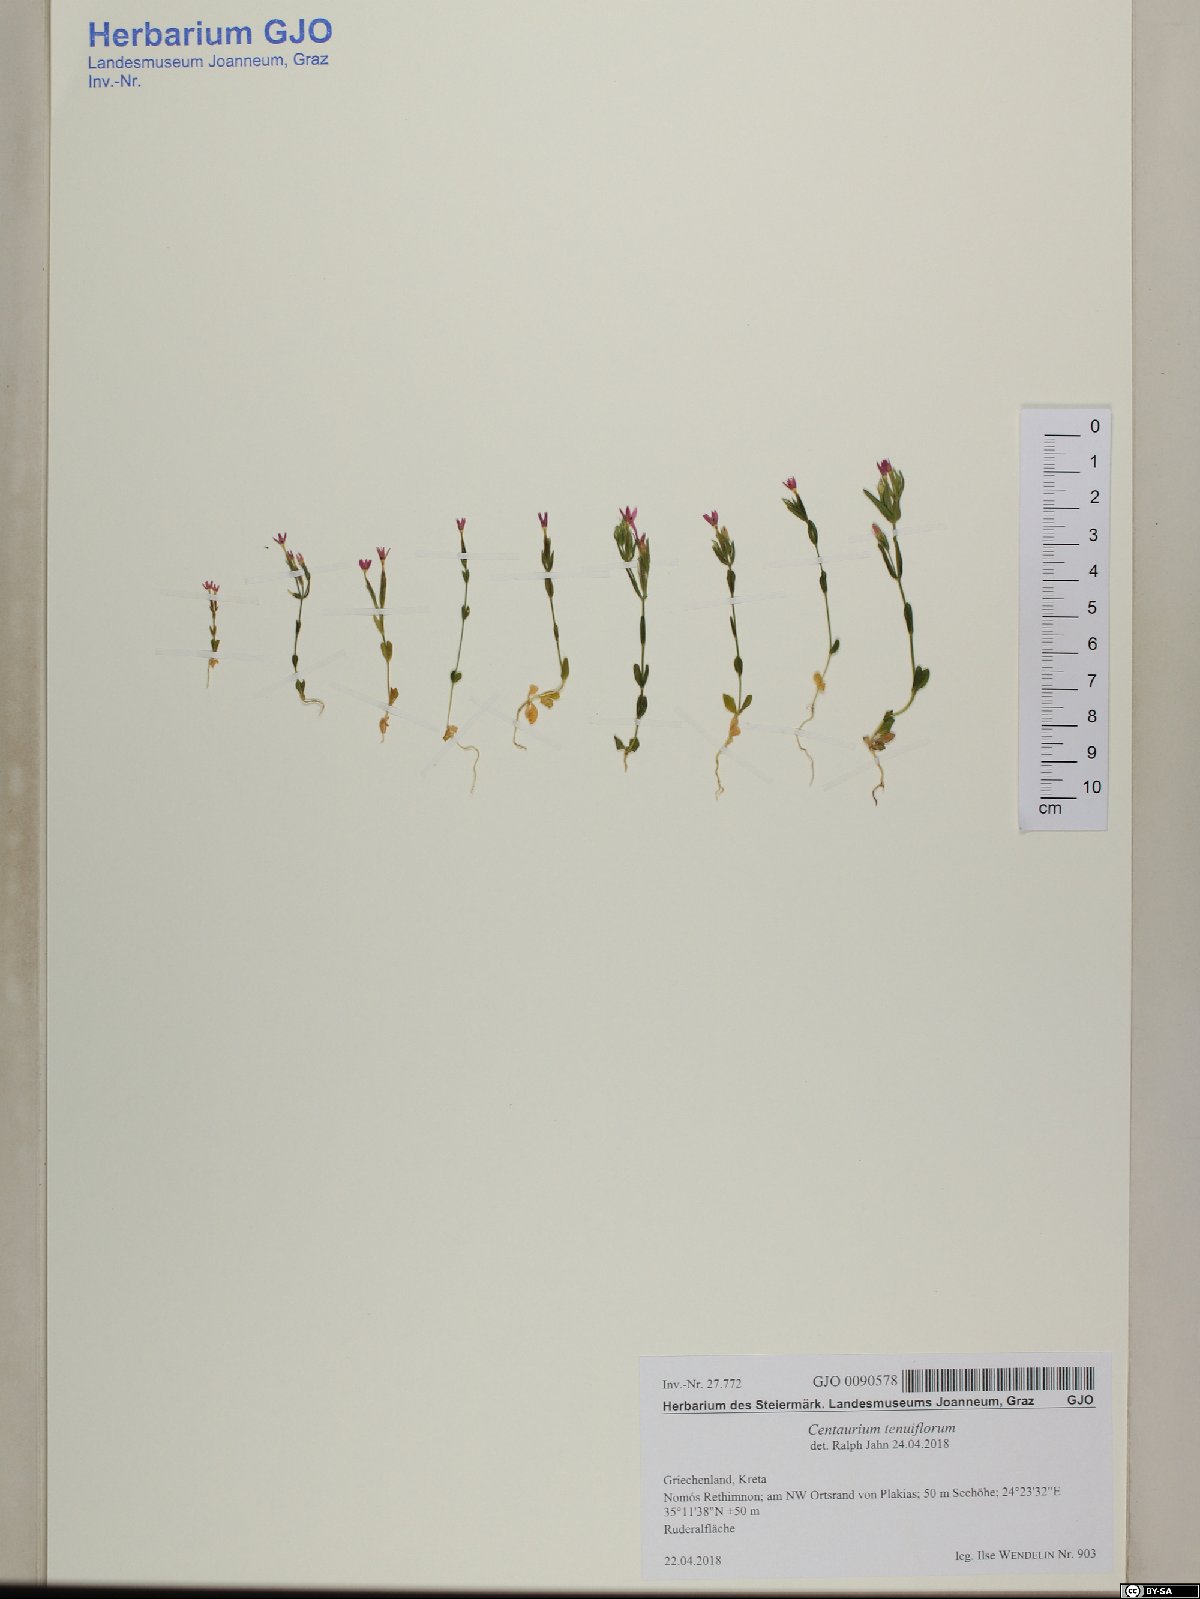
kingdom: Plantae
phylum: Tracheophyta
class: Magnoliopsida
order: Gentianales
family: Gentianaceae
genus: Centaurium
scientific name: Centaurium tenuiflorum
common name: Slender centaury
